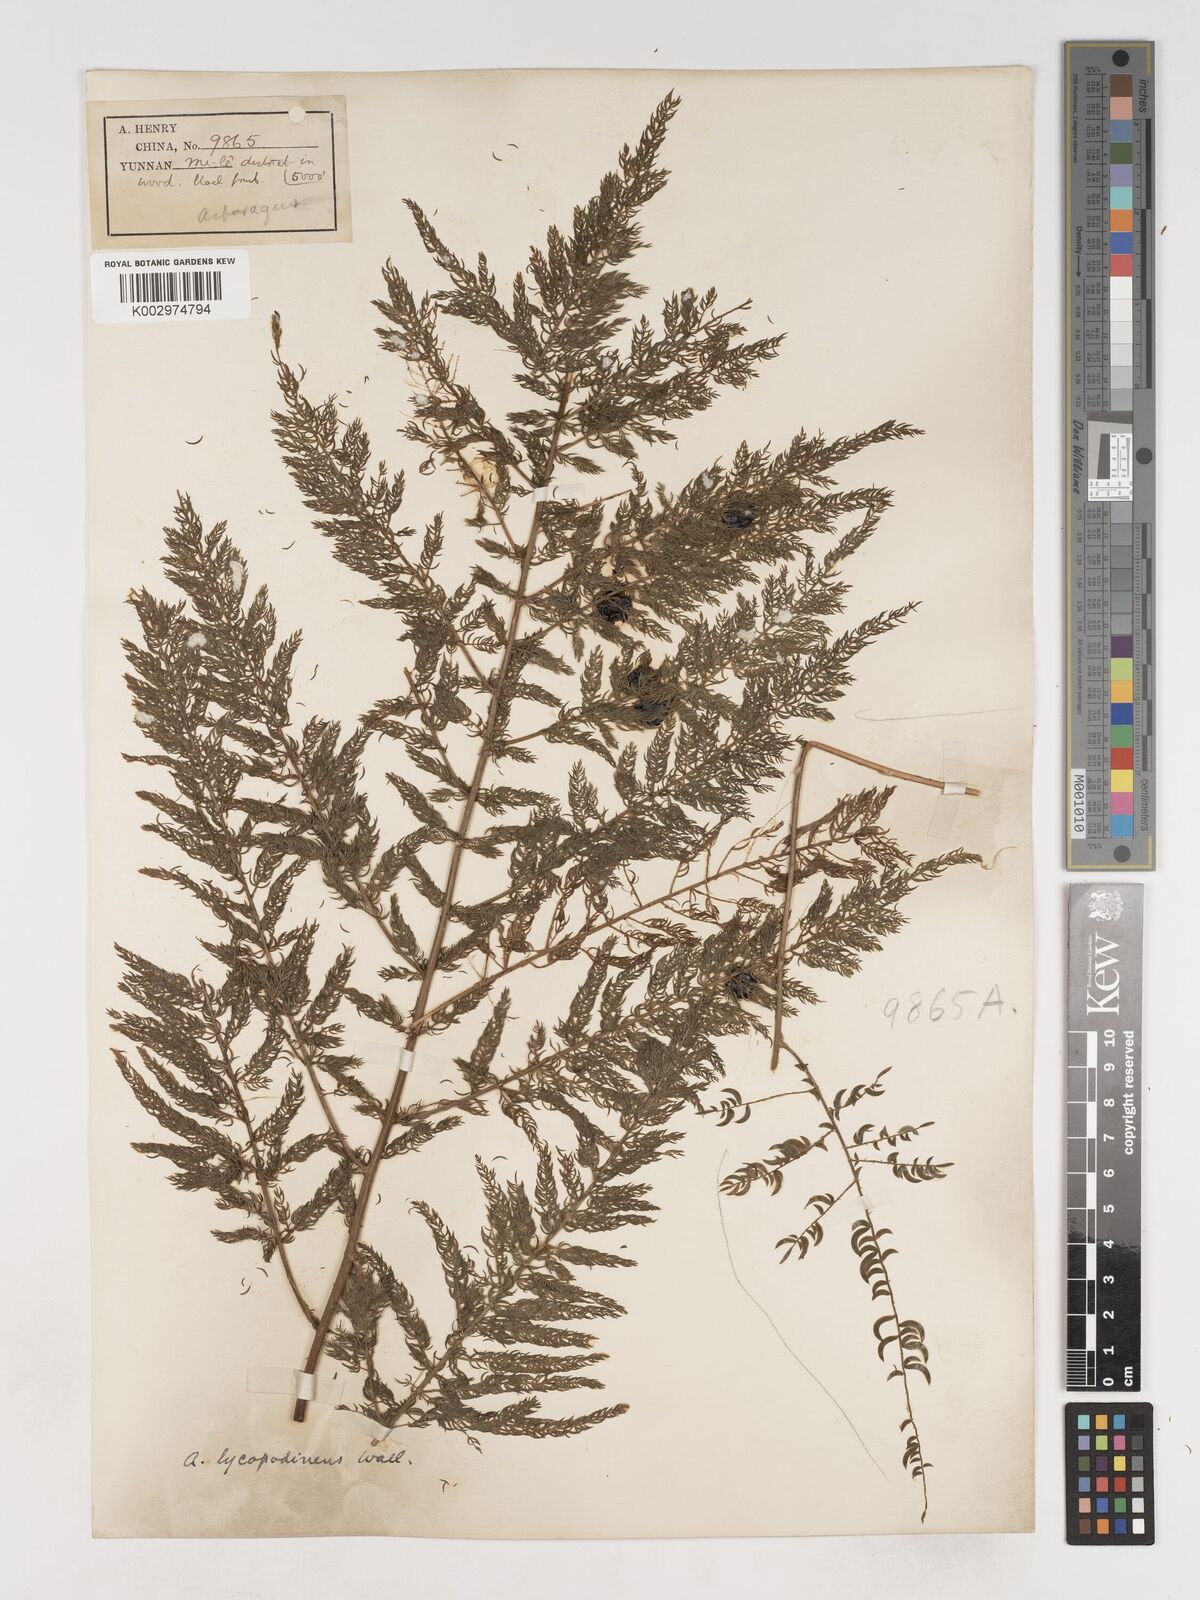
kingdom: Plantae
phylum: Tracheophyta
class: Liliopsida
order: Asparagales
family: Asparagaceae
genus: Asparagus
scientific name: Asparagus filicinus
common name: Fern asparagus
